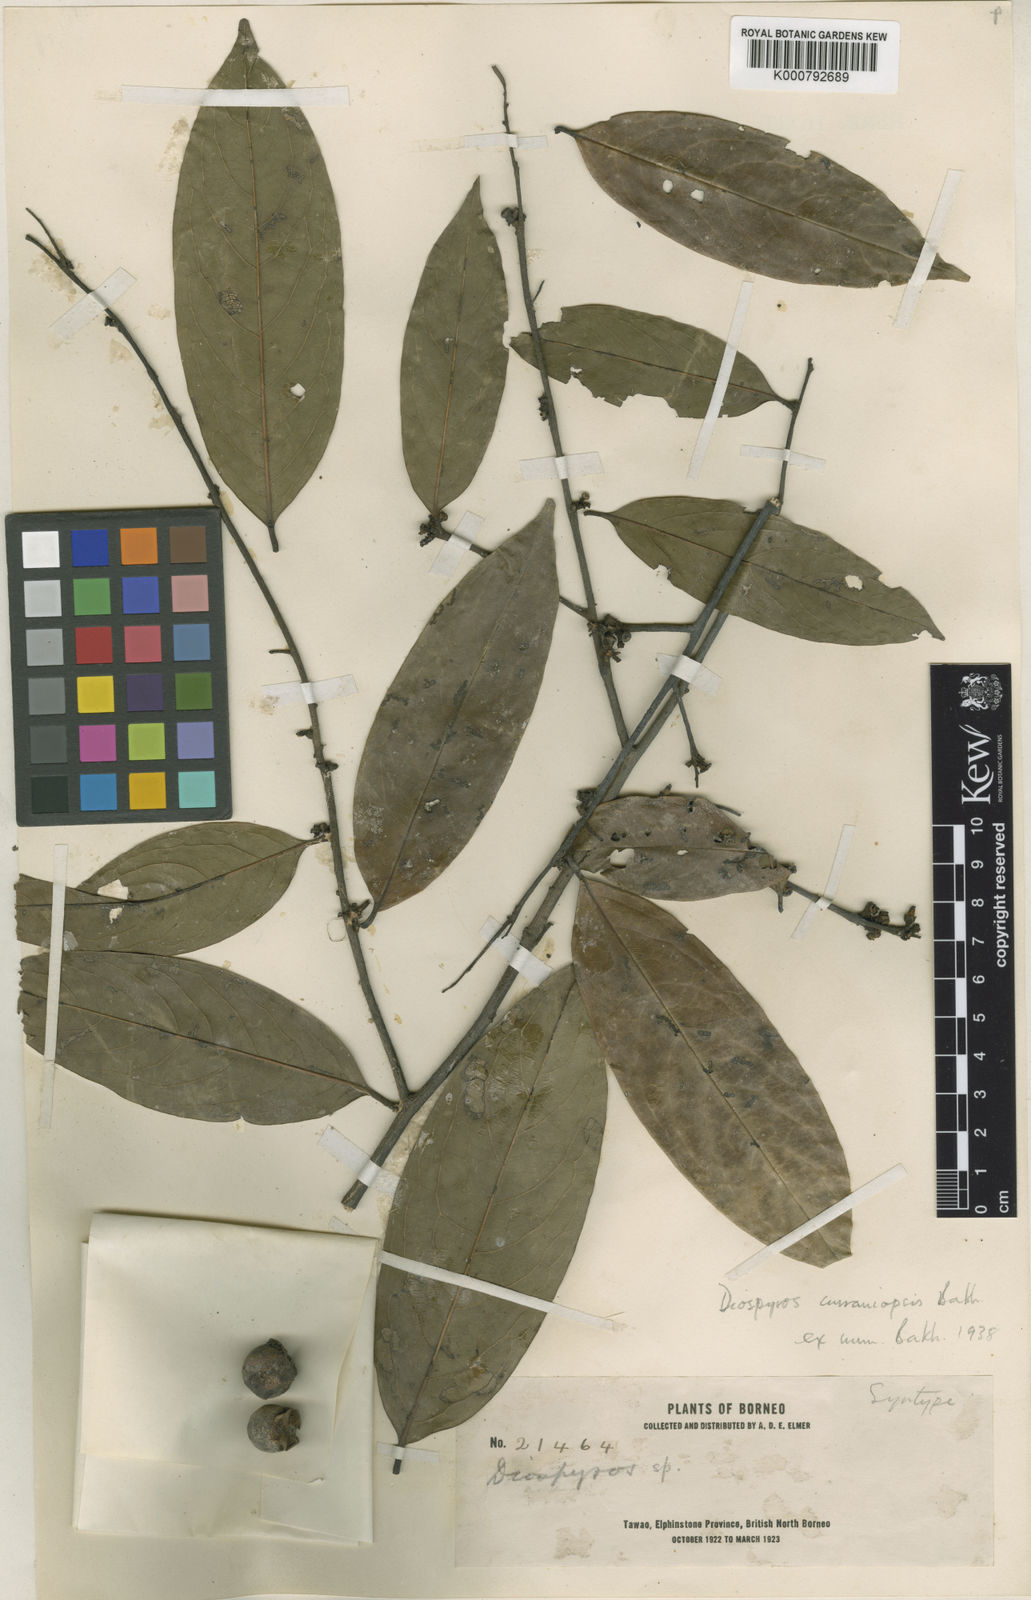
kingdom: Plantae
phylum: Tracheophyta
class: Magnoliopsida
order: Ericales
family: Ebenaceae
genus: Diospyros
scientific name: Diospyros curranii
